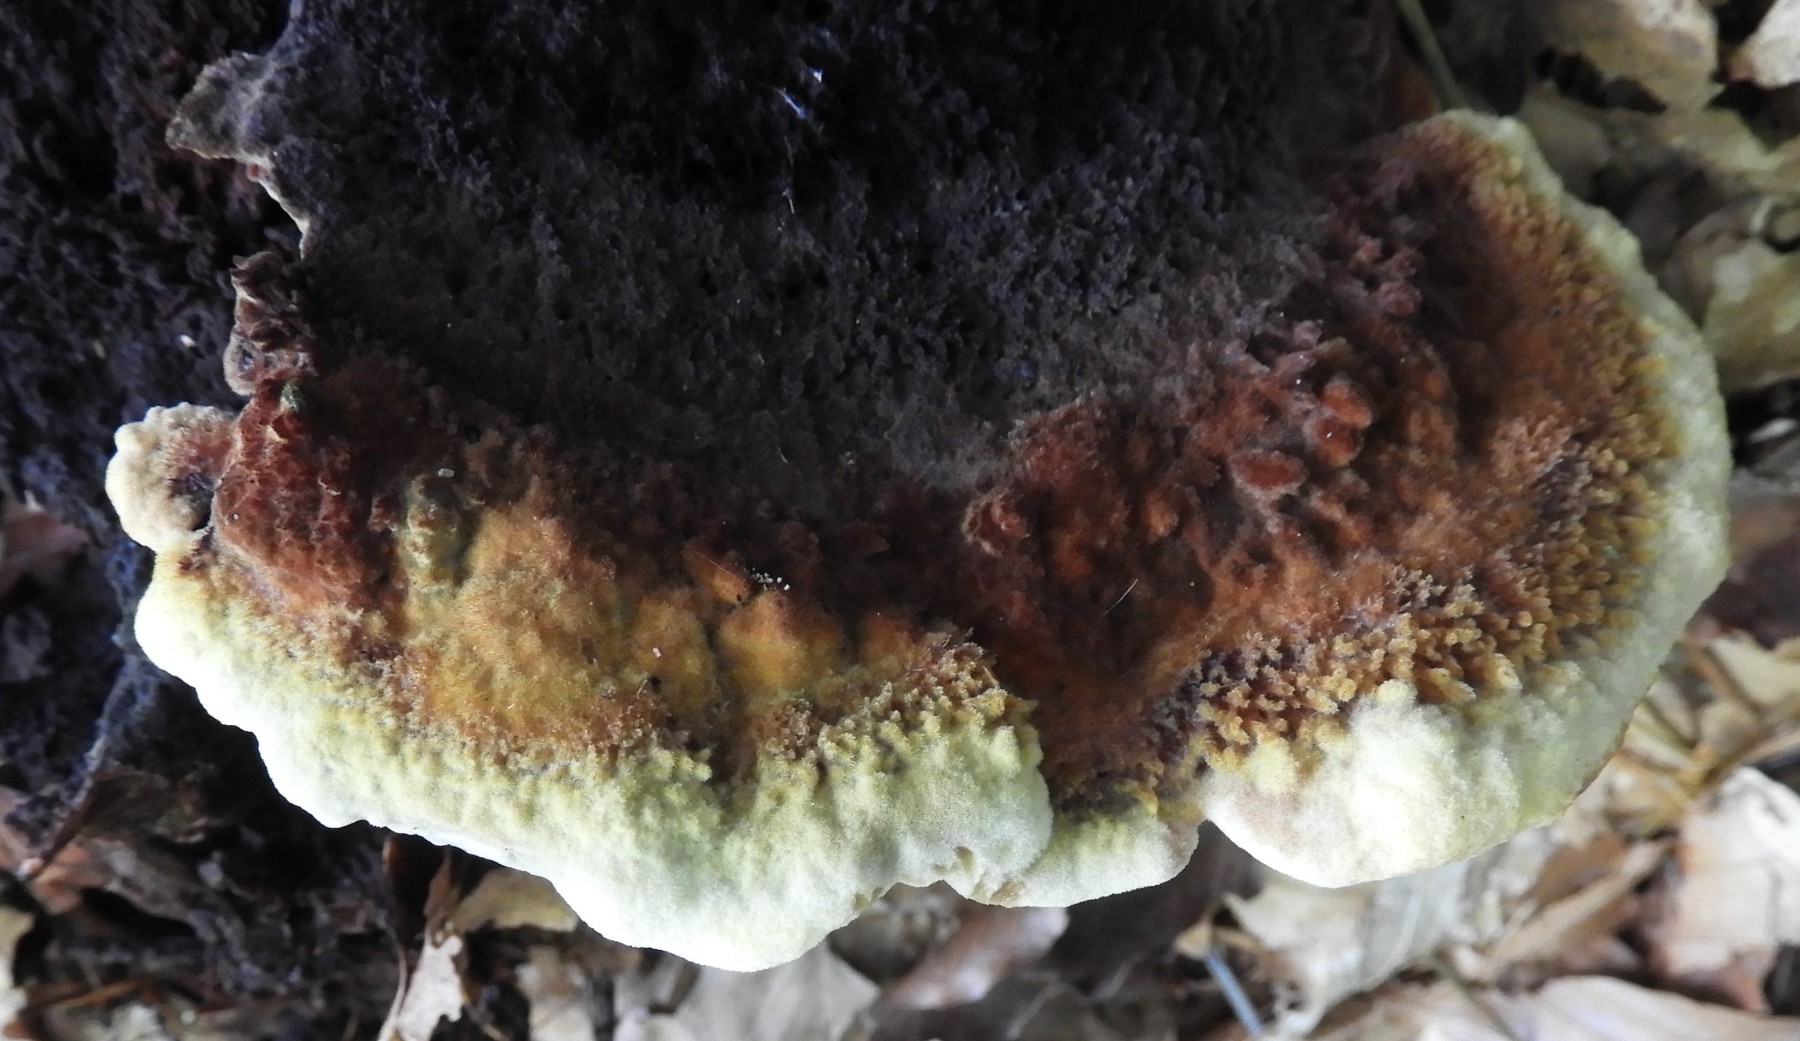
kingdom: Fungi
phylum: Basidiomycota
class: Agaricomycetes
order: Polyporales
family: Laetiporaceae
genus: Phaeolus
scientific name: Phaeolus schweinitzii
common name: brunporesvamp
